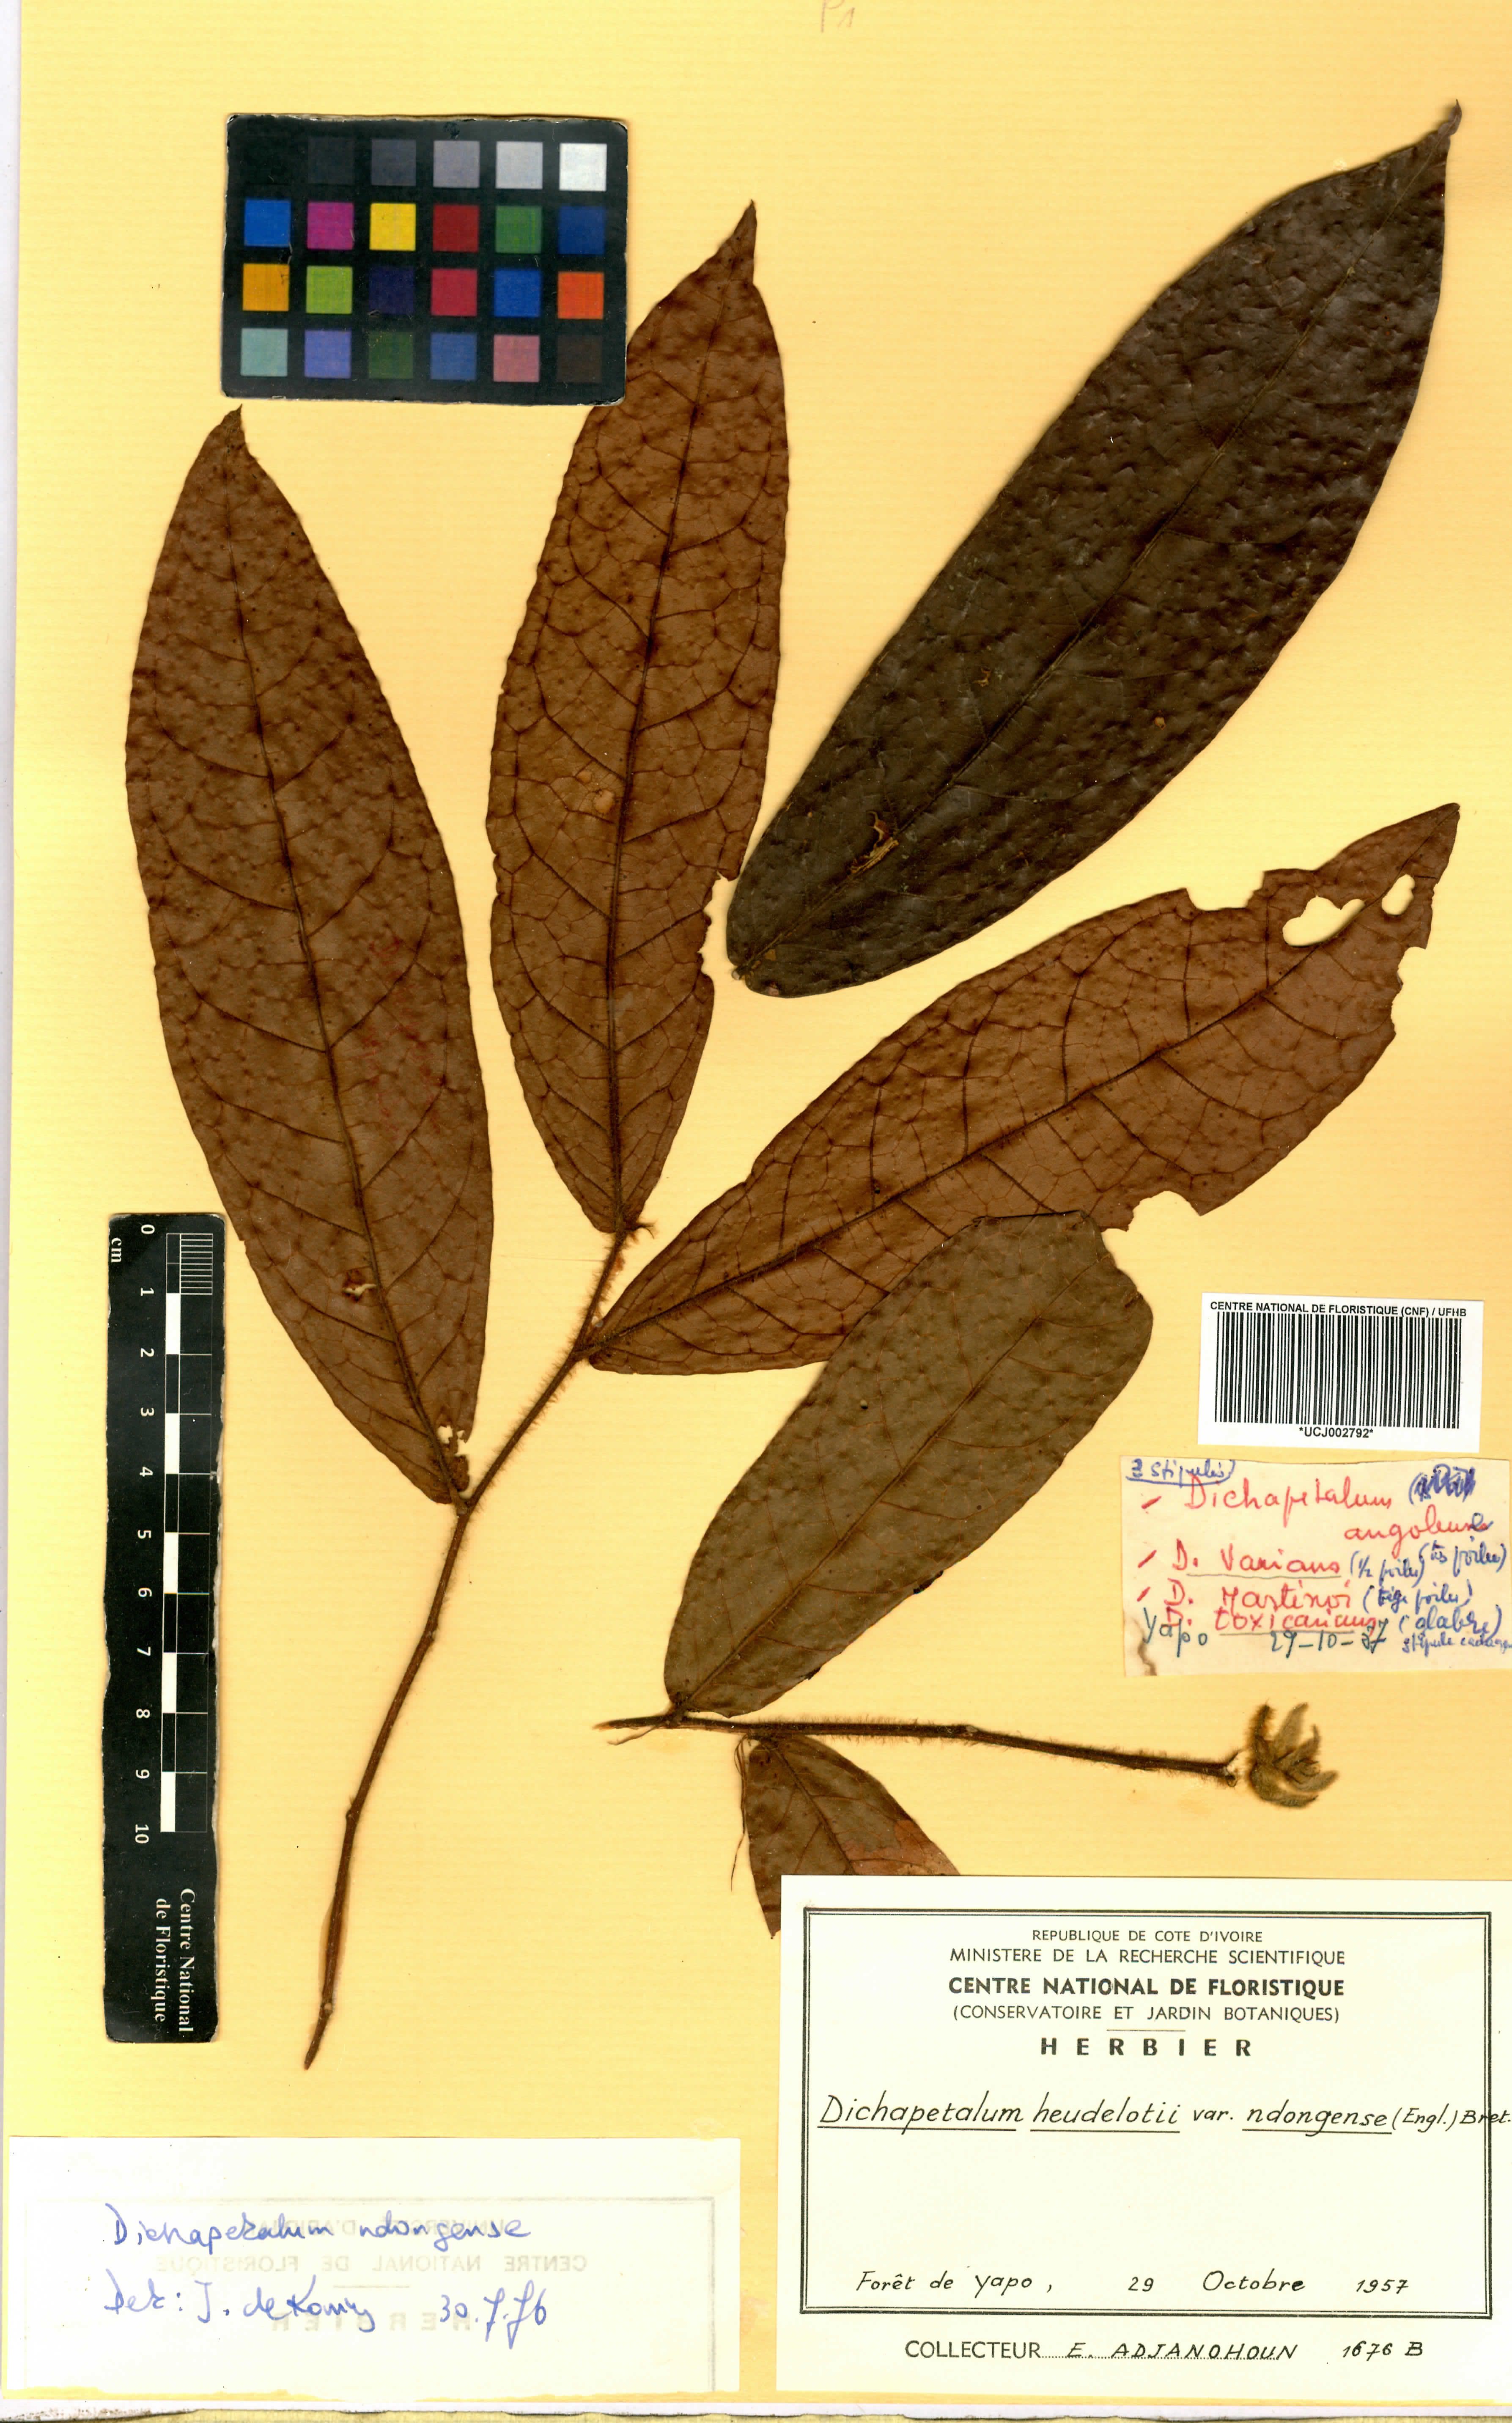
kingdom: Plantae
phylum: Tracheophyta
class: Magnoliopsida
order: Malpighiales
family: Dichapetalaceae
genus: Dichapetalum
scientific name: Dichapetalum heudelotii
